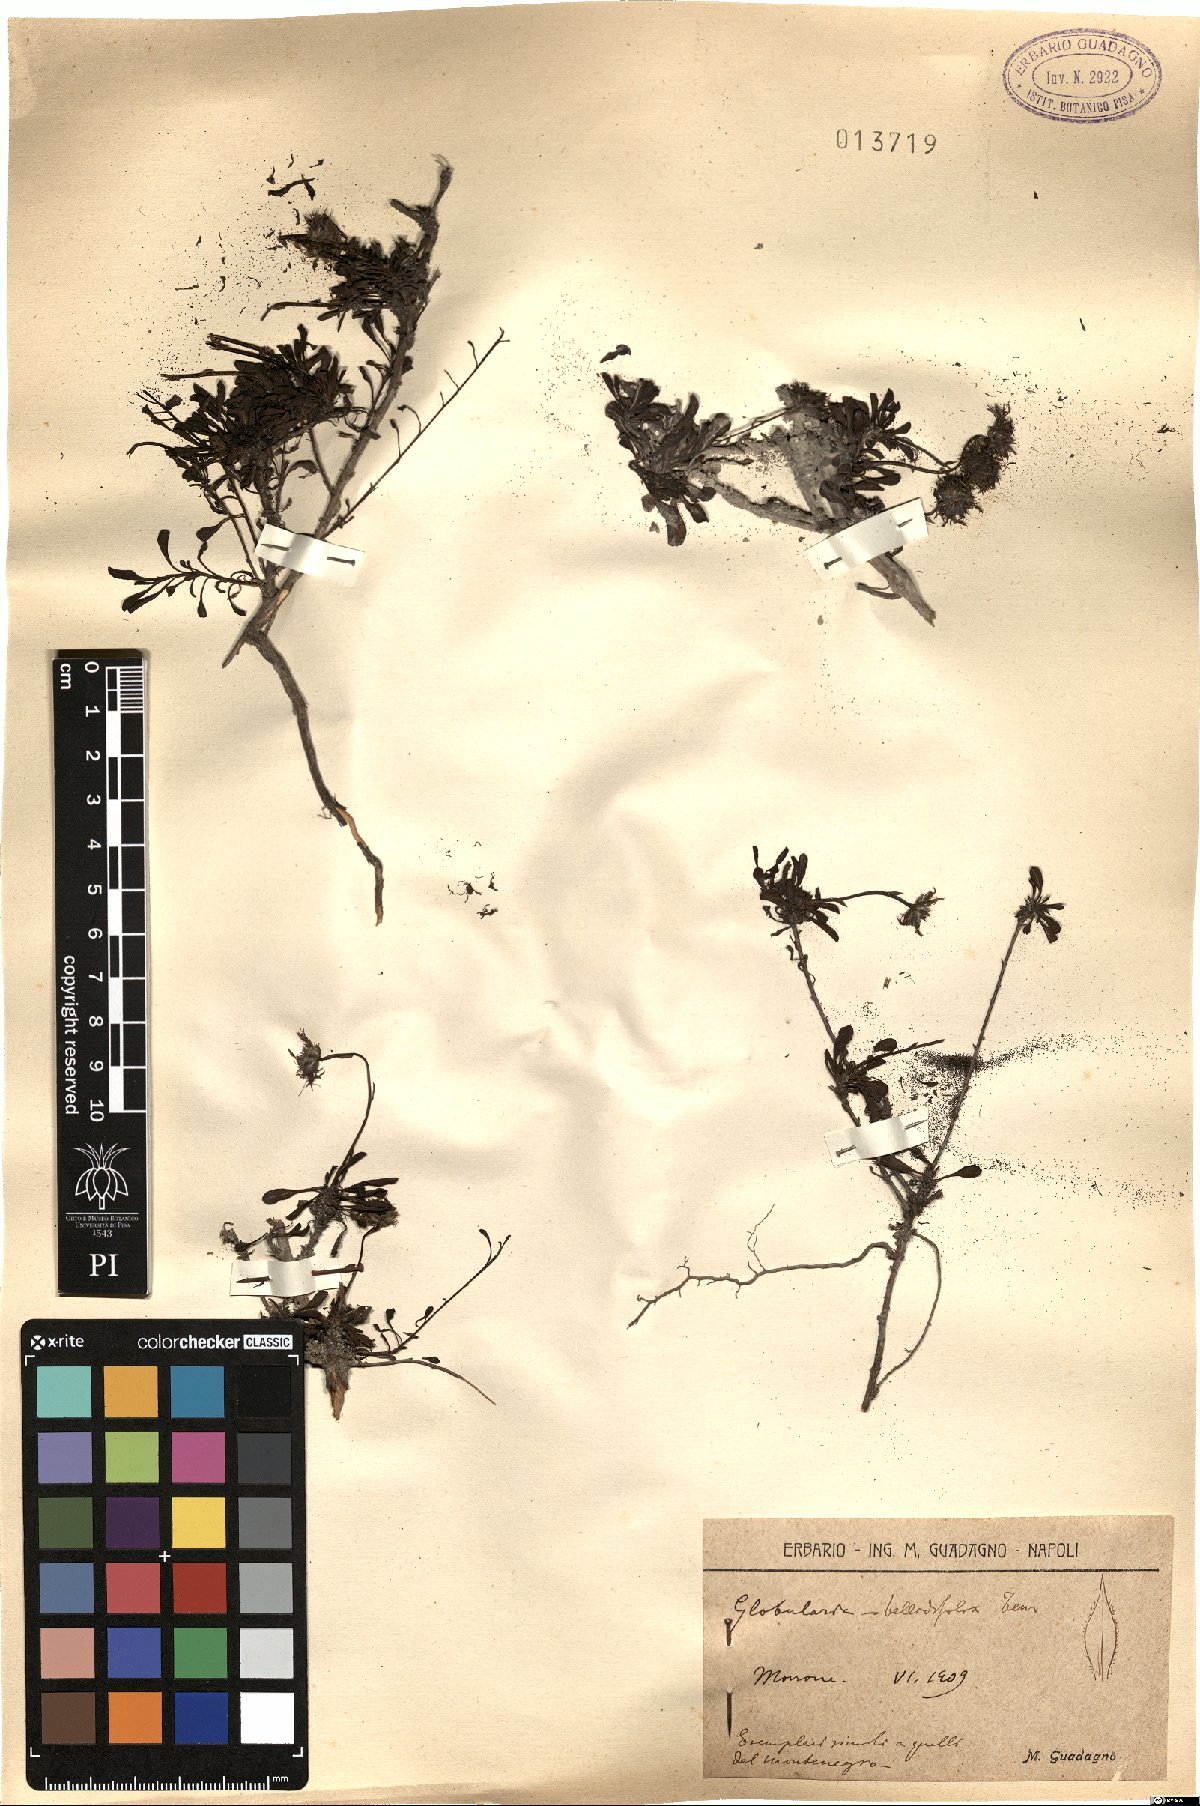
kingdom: Plantae
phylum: Tracheophyta
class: Magnoliopsida
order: Lamiales
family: Plantaginaceae
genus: Globularia
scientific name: Globularia meridionalis
